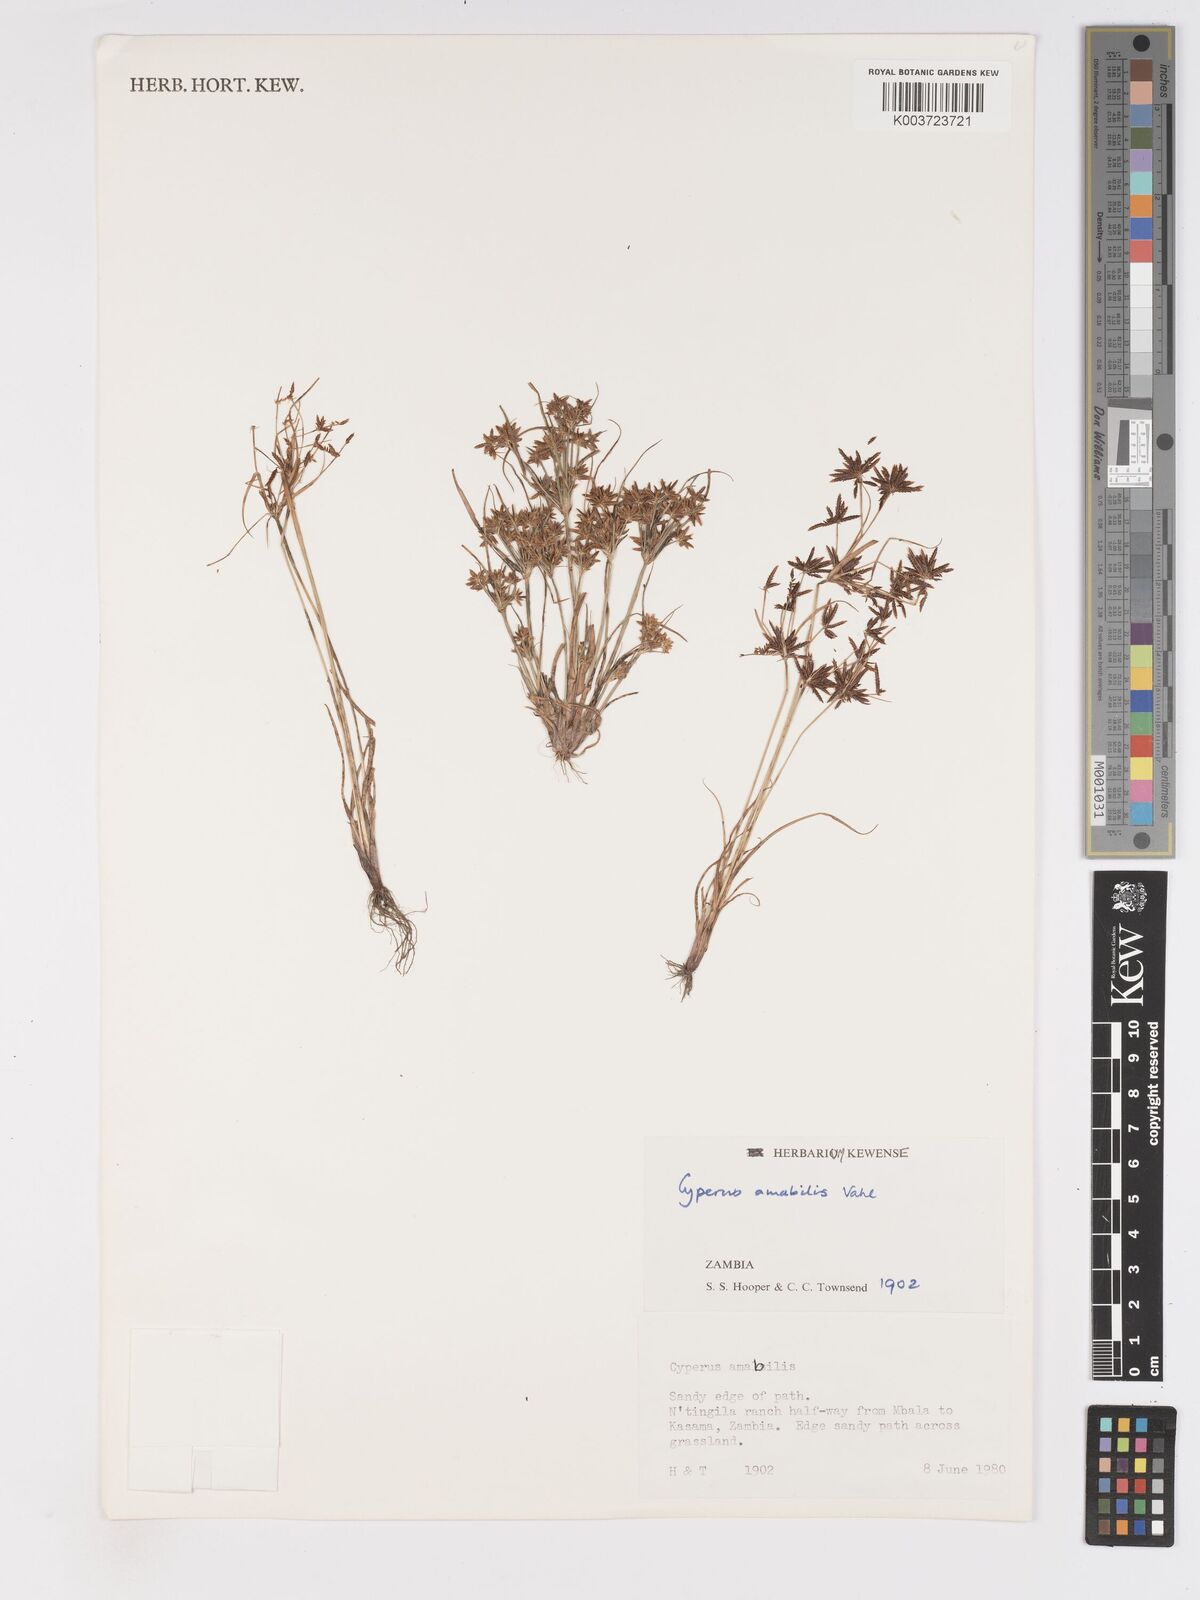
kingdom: Plantae
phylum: Tracheophyta
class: Liliopsida
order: Poales
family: Cyperaceae
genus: Cyperus
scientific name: Cyperus amabilis
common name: Foothill flat sedge
